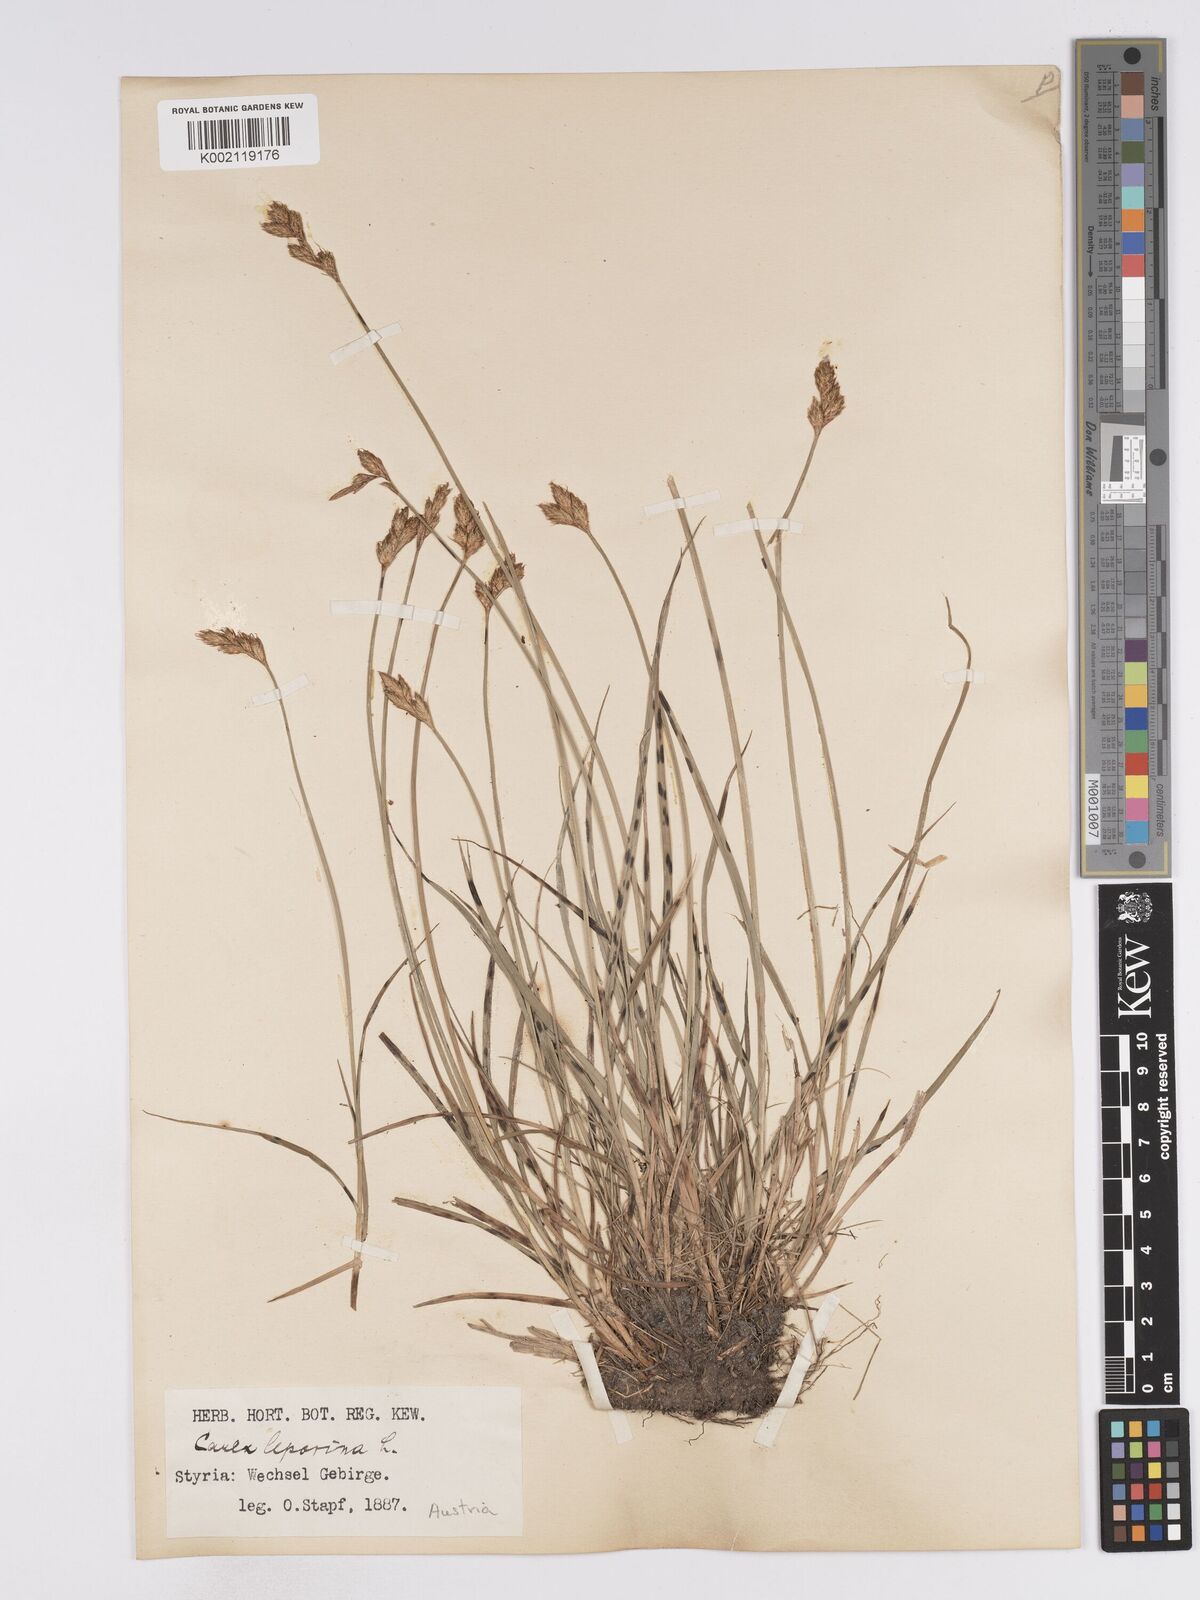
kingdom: Plantae
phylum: Tracheophyta
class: Liliopsida
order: Poales
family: Cyperaceae
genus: Carex
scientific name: Carex leporina
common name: Oval sedge
